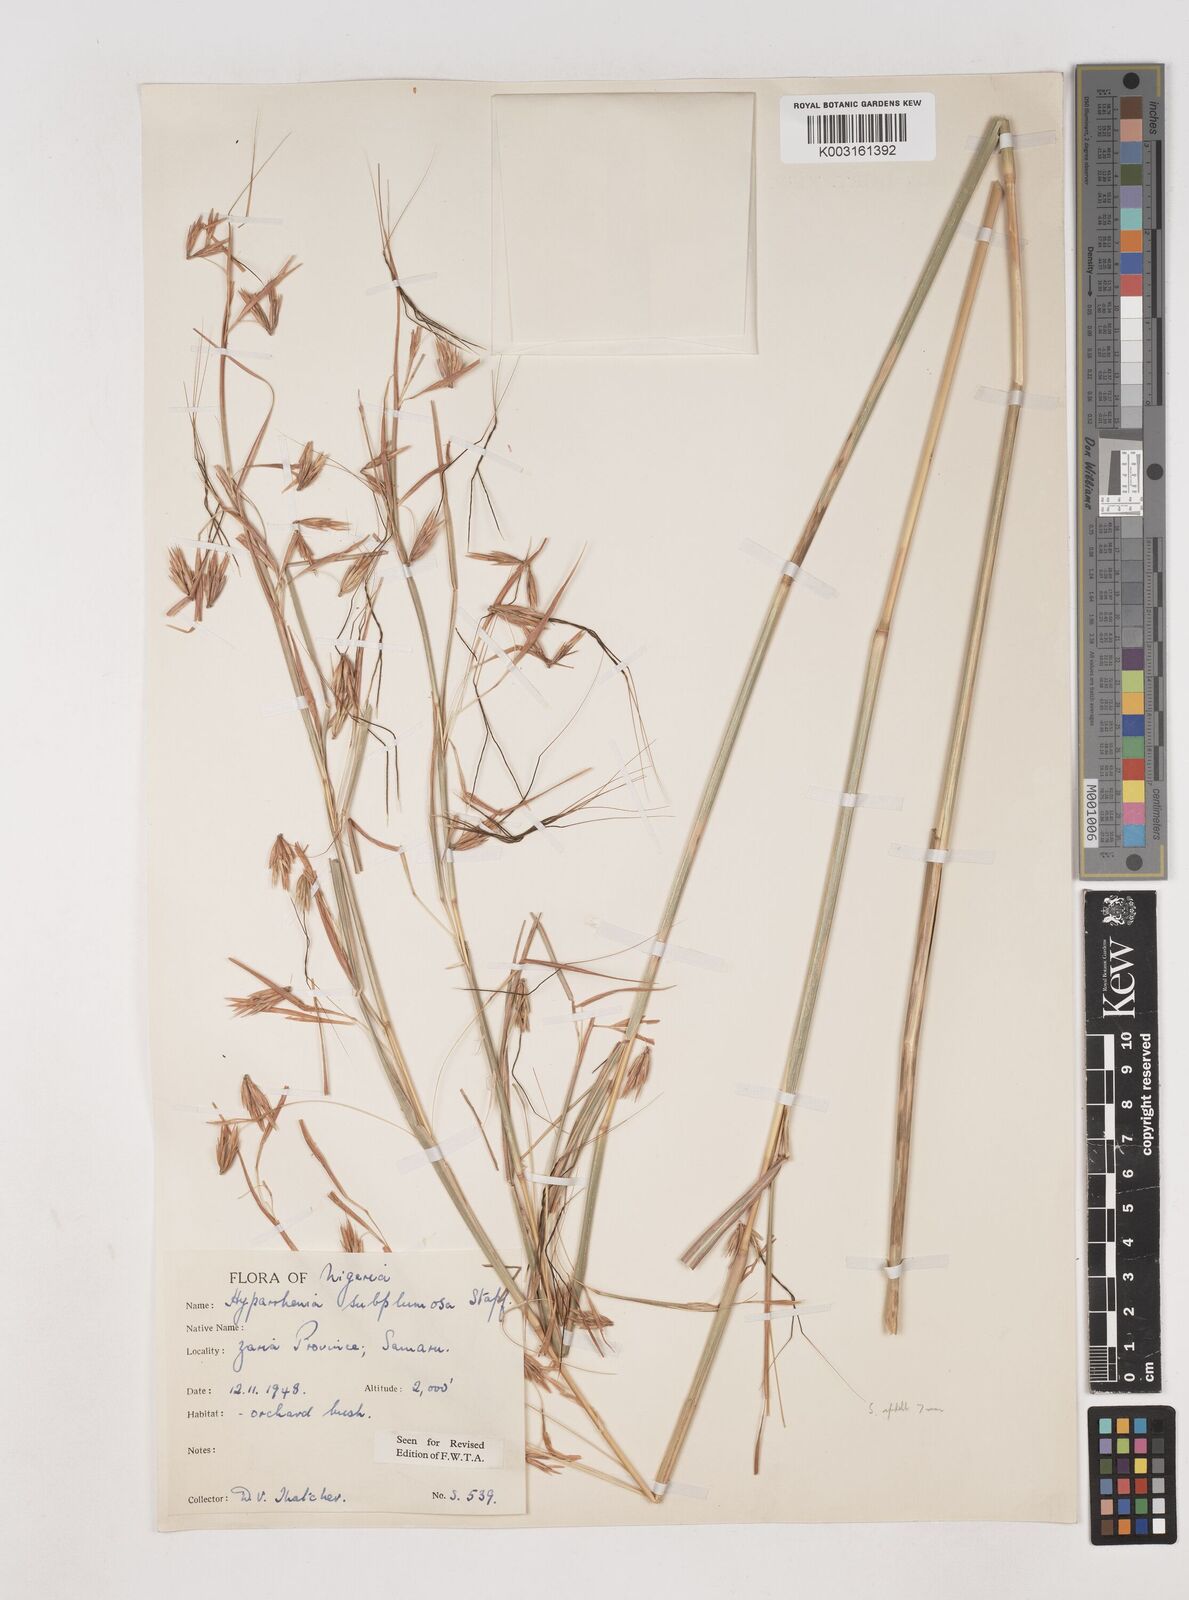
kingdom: Plantae
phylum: Tracheophyta
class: Liliopsida
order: Poales
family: Poaceae
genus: Hyparrhenia
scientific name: Hyparrhenia subplumosa
